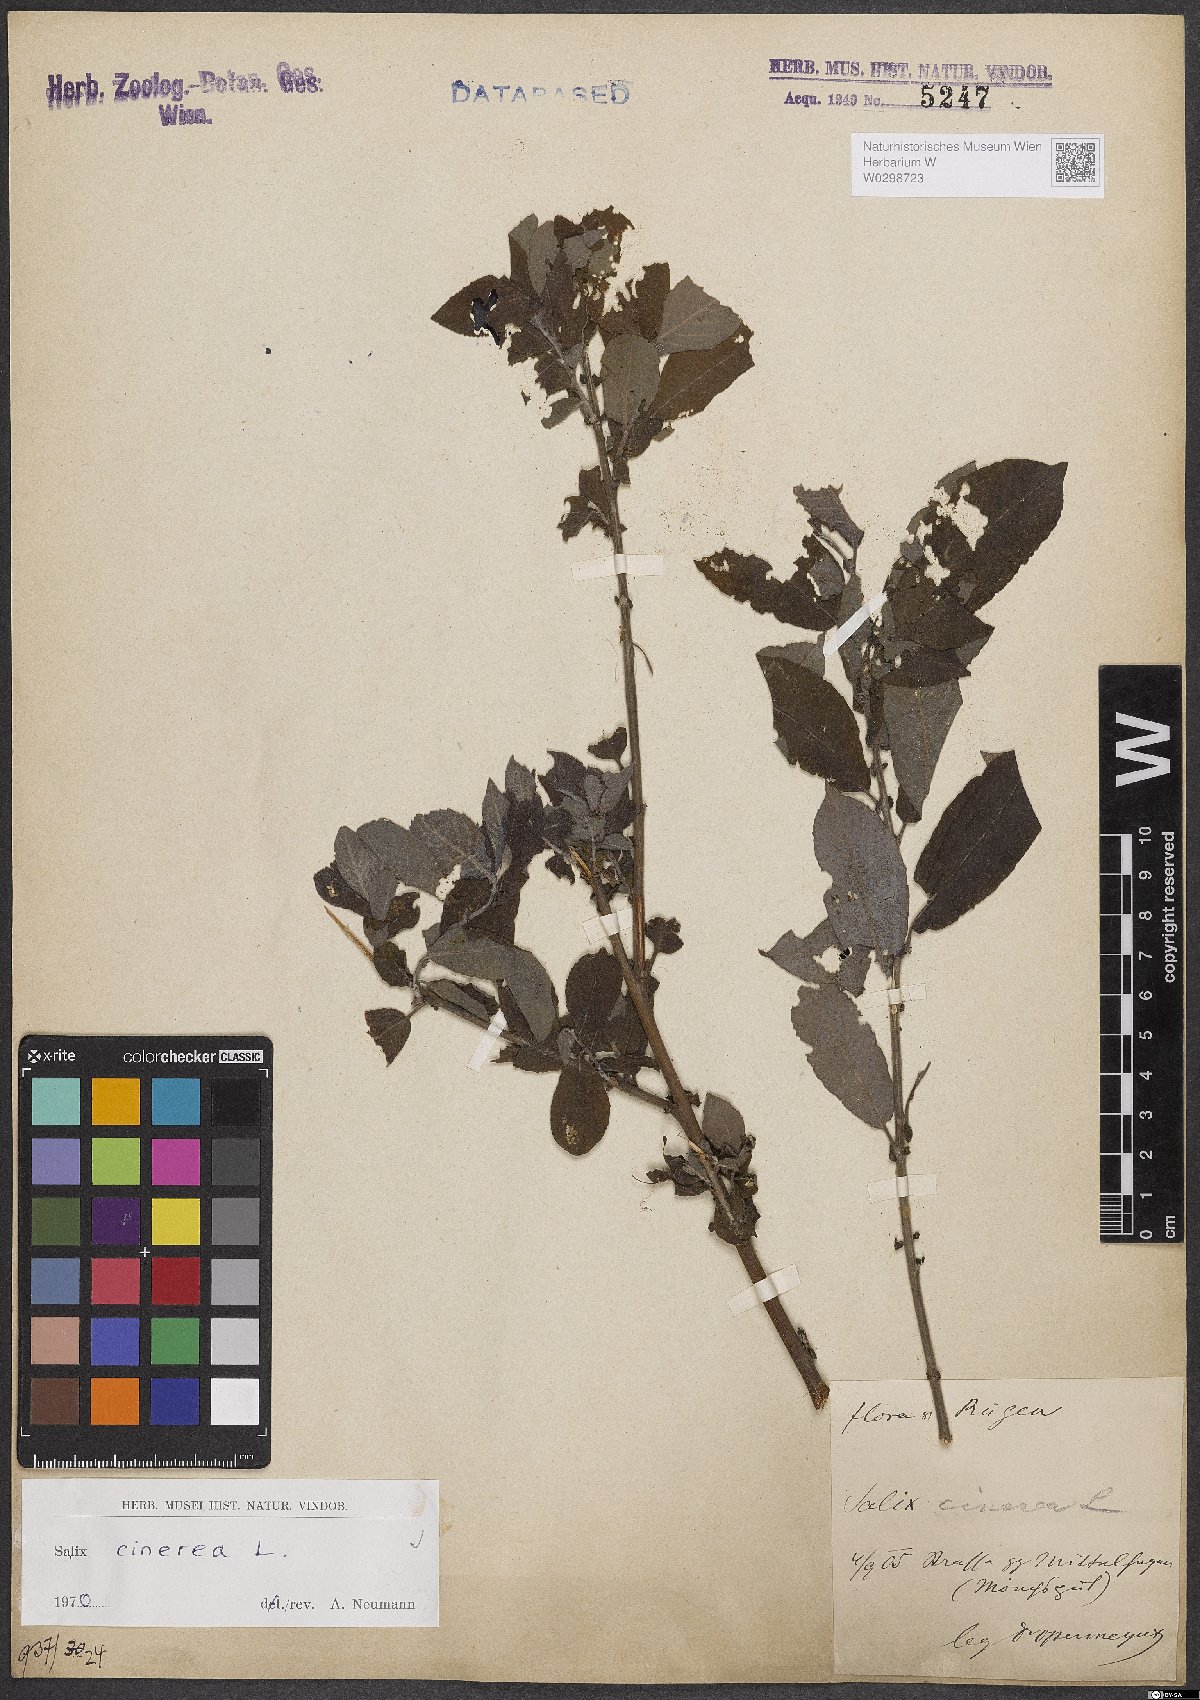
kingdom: Plantae
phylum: Tracheophyta
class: Magnoliopsida
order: Malpighiales
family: Salicaceae
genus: Salix
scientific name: Salix cinerea
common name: Common sallow
